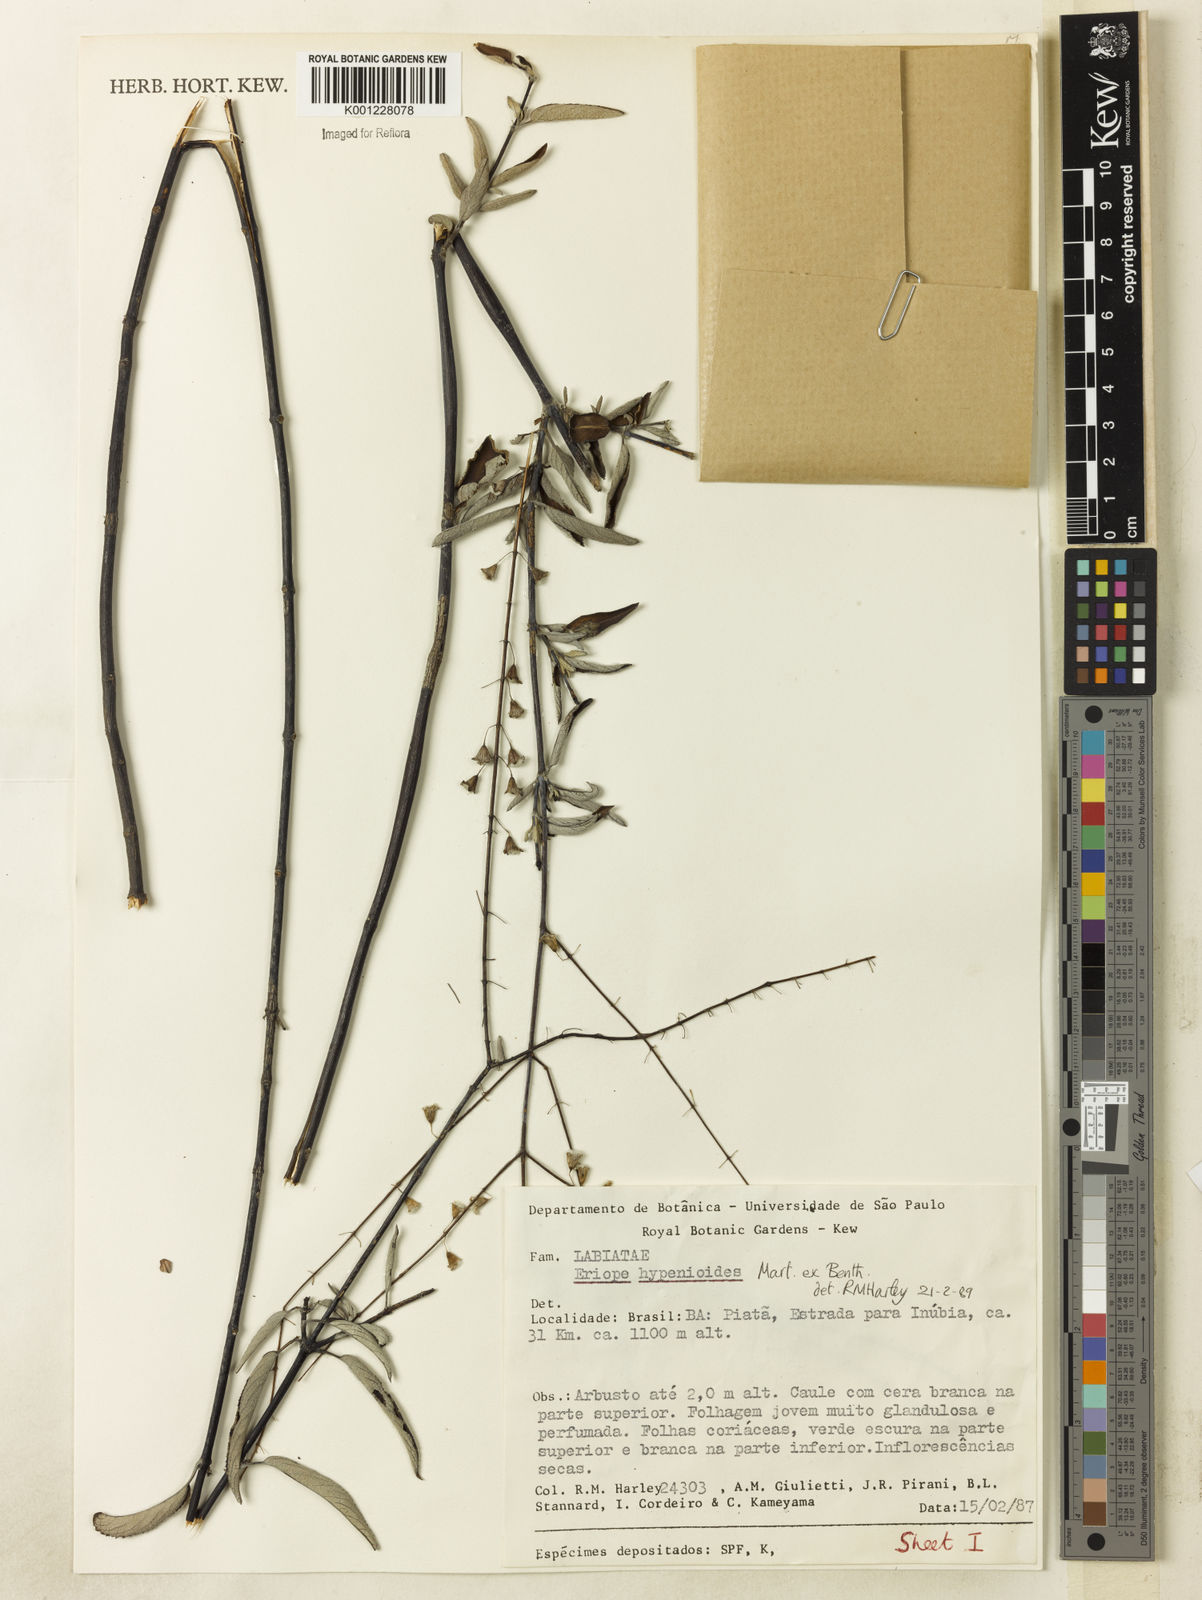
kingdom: Plantae
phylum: Tracheophyta
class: Magnoliopsida
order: Lamiales
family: Lamiaceae
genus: Eriope
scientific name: Eriope hypenioides
